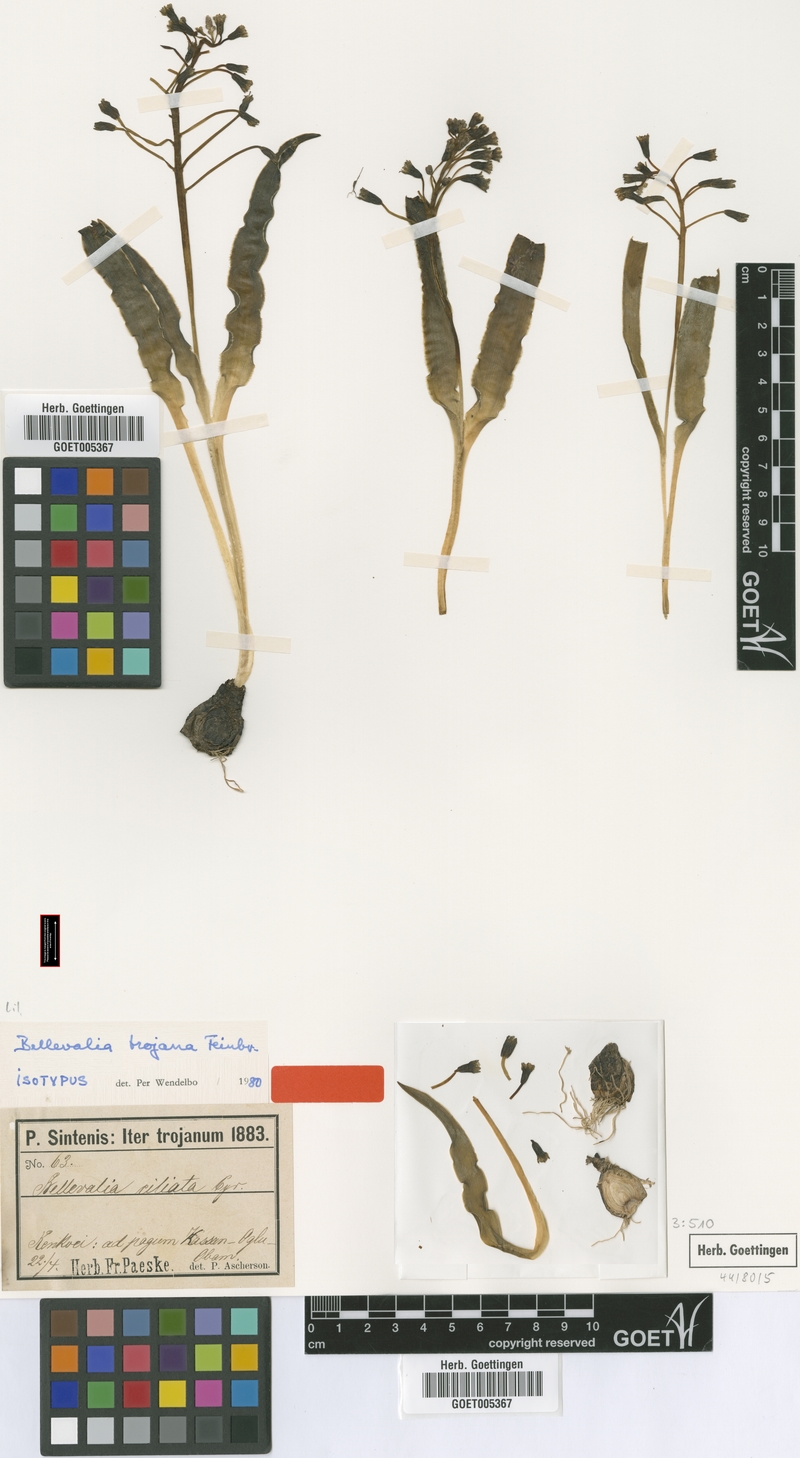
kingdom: Plantae
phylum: Tracheophyta
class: Liliopsida
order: Asparagales
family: Asparagaceae
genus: Bellevalia
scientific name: Bellevalia speciosa
